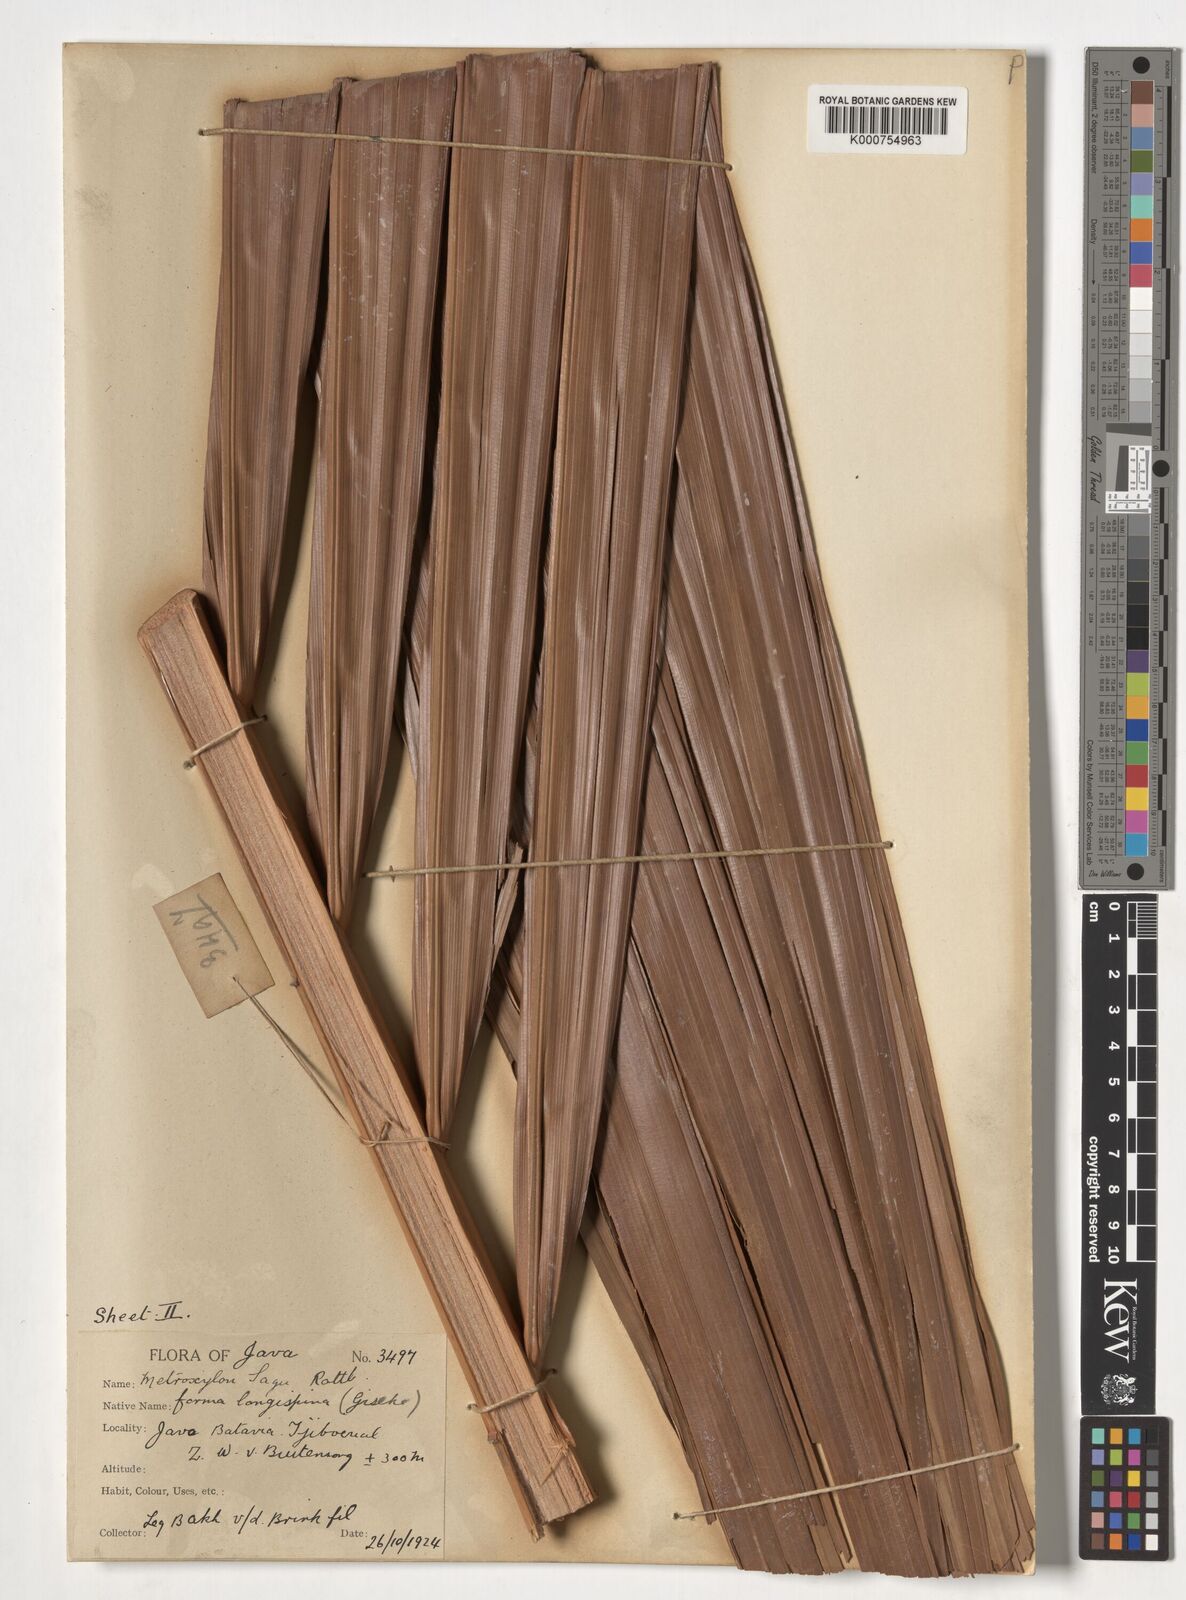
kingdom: Plantae
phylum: Tracheophyta
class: Liliopsida
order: Arecales
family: Arecaceae
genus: Metroxylon
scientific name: Metroxylon sagu
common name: Sago palm
